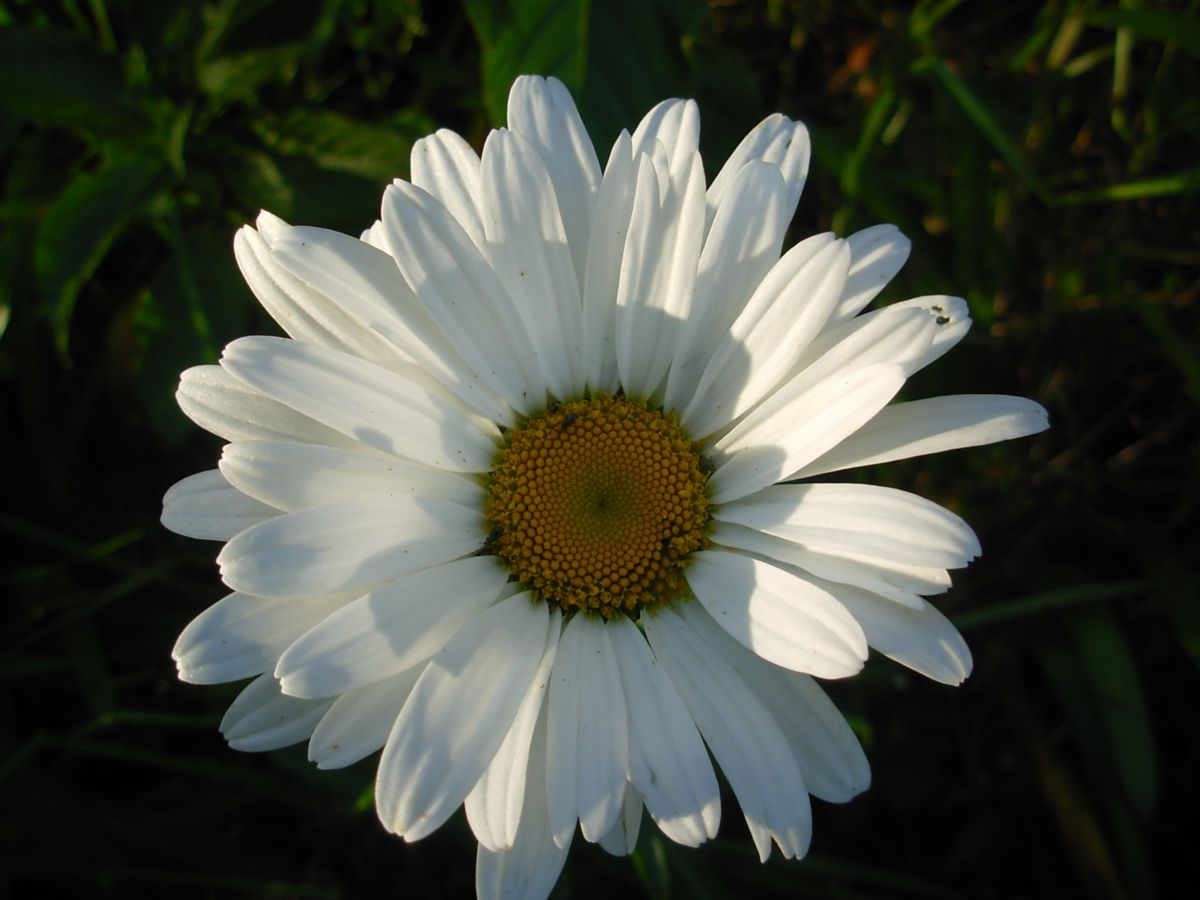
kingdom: Plantae
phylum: Tracheophyta
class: Magnoliopsida
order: Asterales
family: Asteraceae
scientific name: Asteraceae
